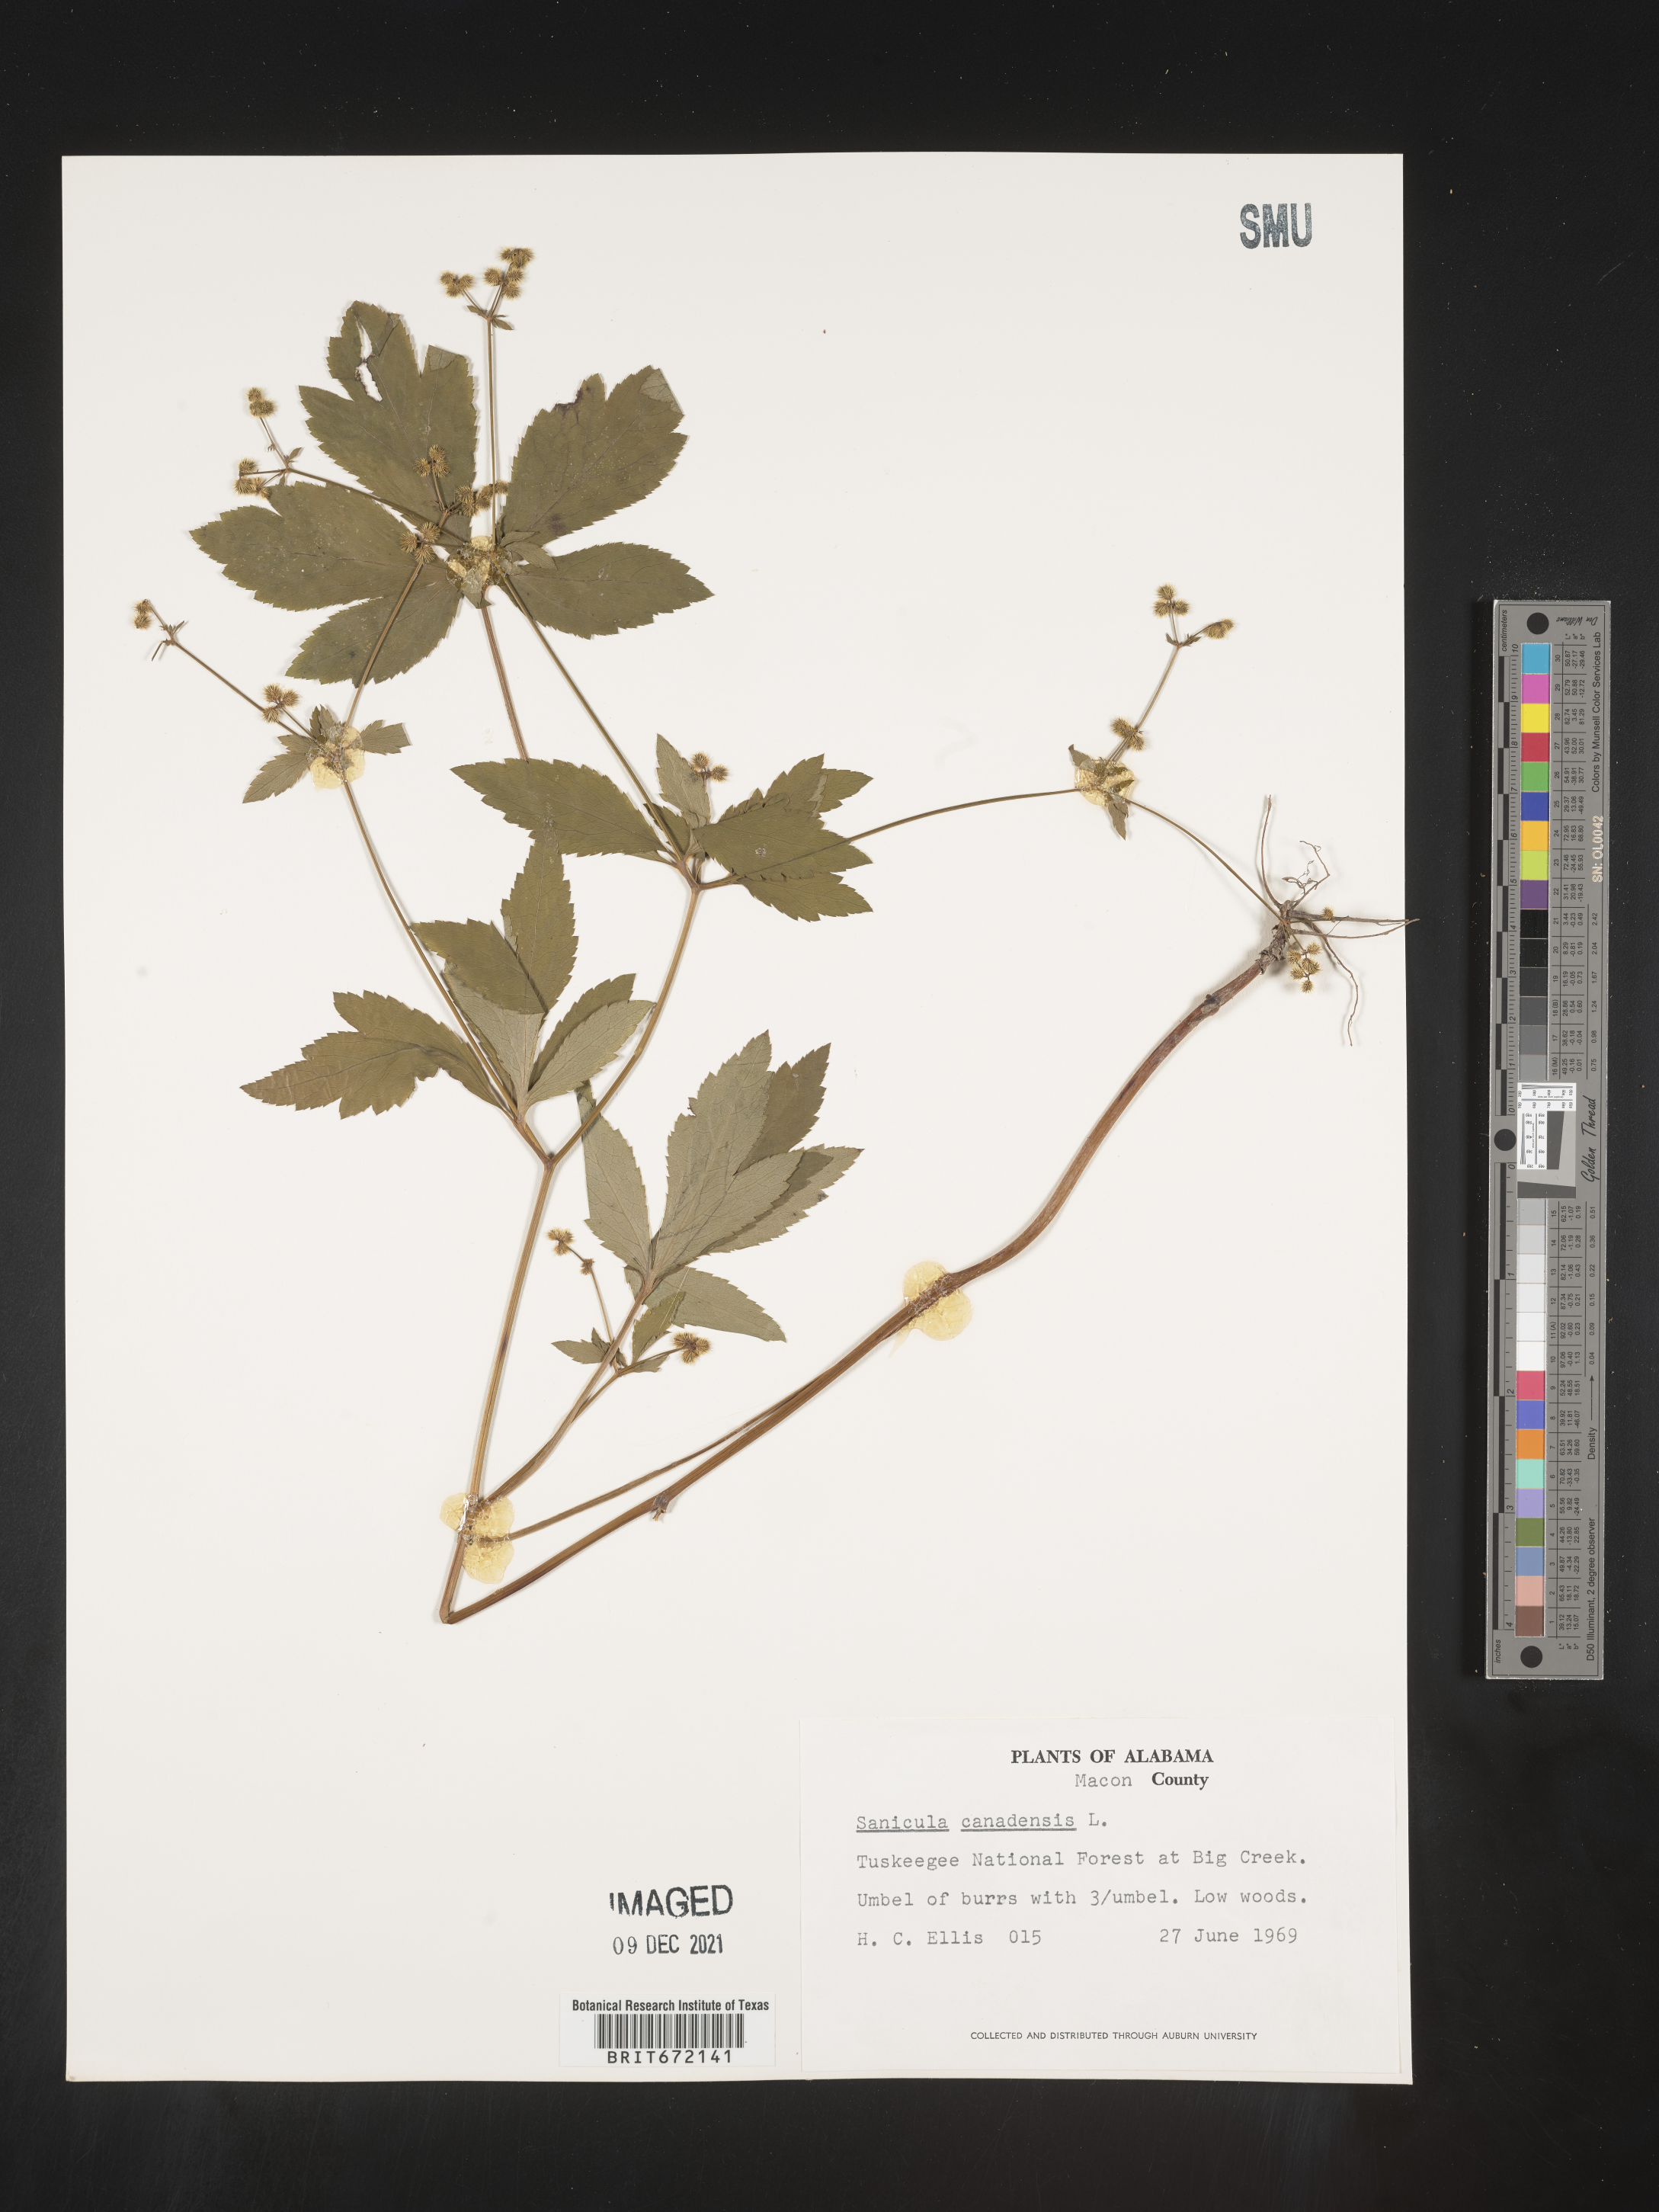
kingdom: Plantae
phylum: Tracheophyta
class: Magnoliopsida
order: Apiales
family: Apiaceae
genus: Sanicula
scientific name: Sanicula canadensis
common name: Canada sanicle
